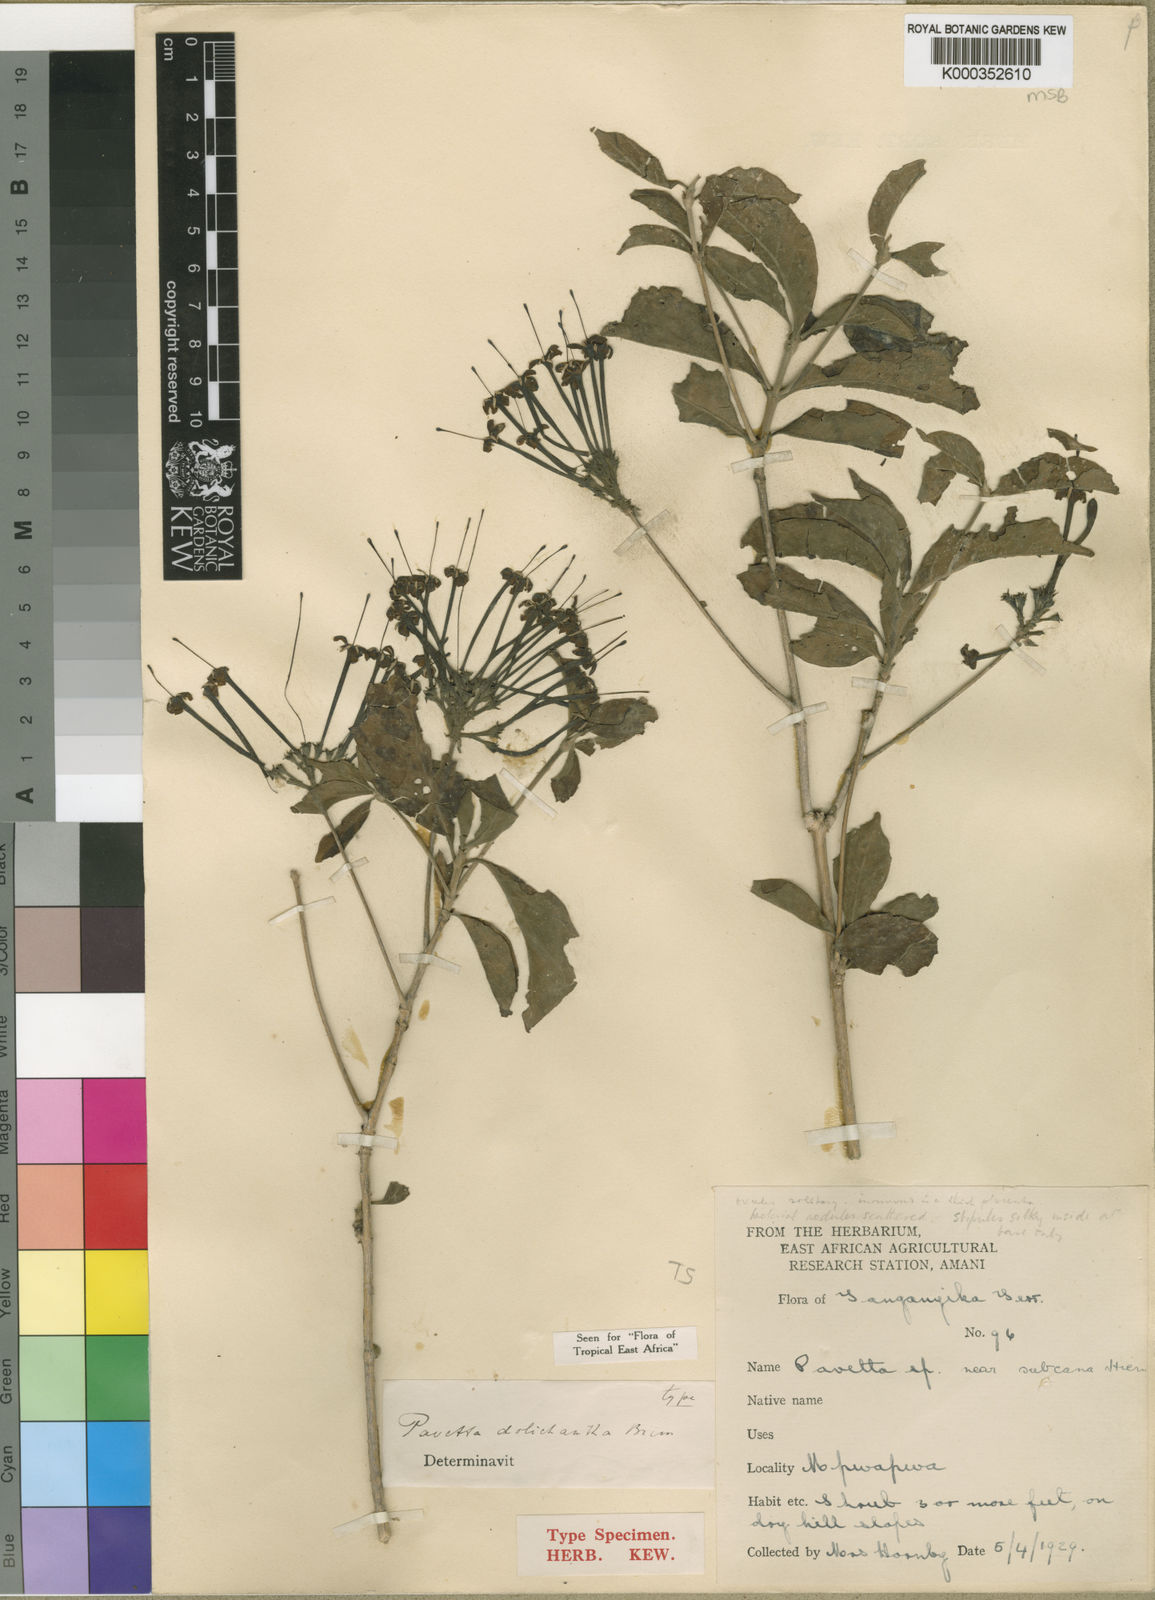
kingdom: Plantae
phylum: Tracheophyta
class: Magnoliopsida
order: Gentianales
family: Rubiaceae
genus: Pavetta
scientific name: Pavetta dolichantha
